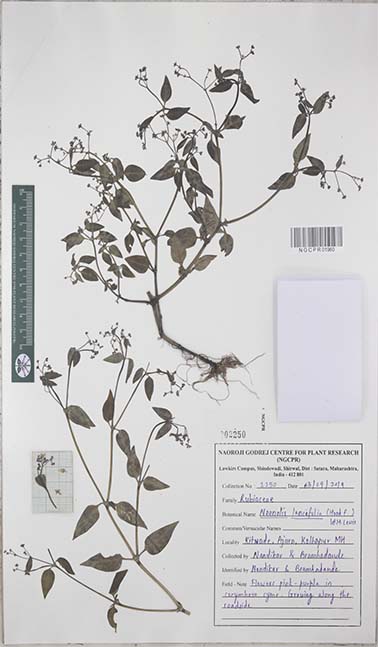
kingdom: Plantae
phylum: Tracheophyta
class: Magnoliopsida
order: Gentianales
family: Rubiaceae
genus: Neanotis
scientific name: Neanotis latifolia
